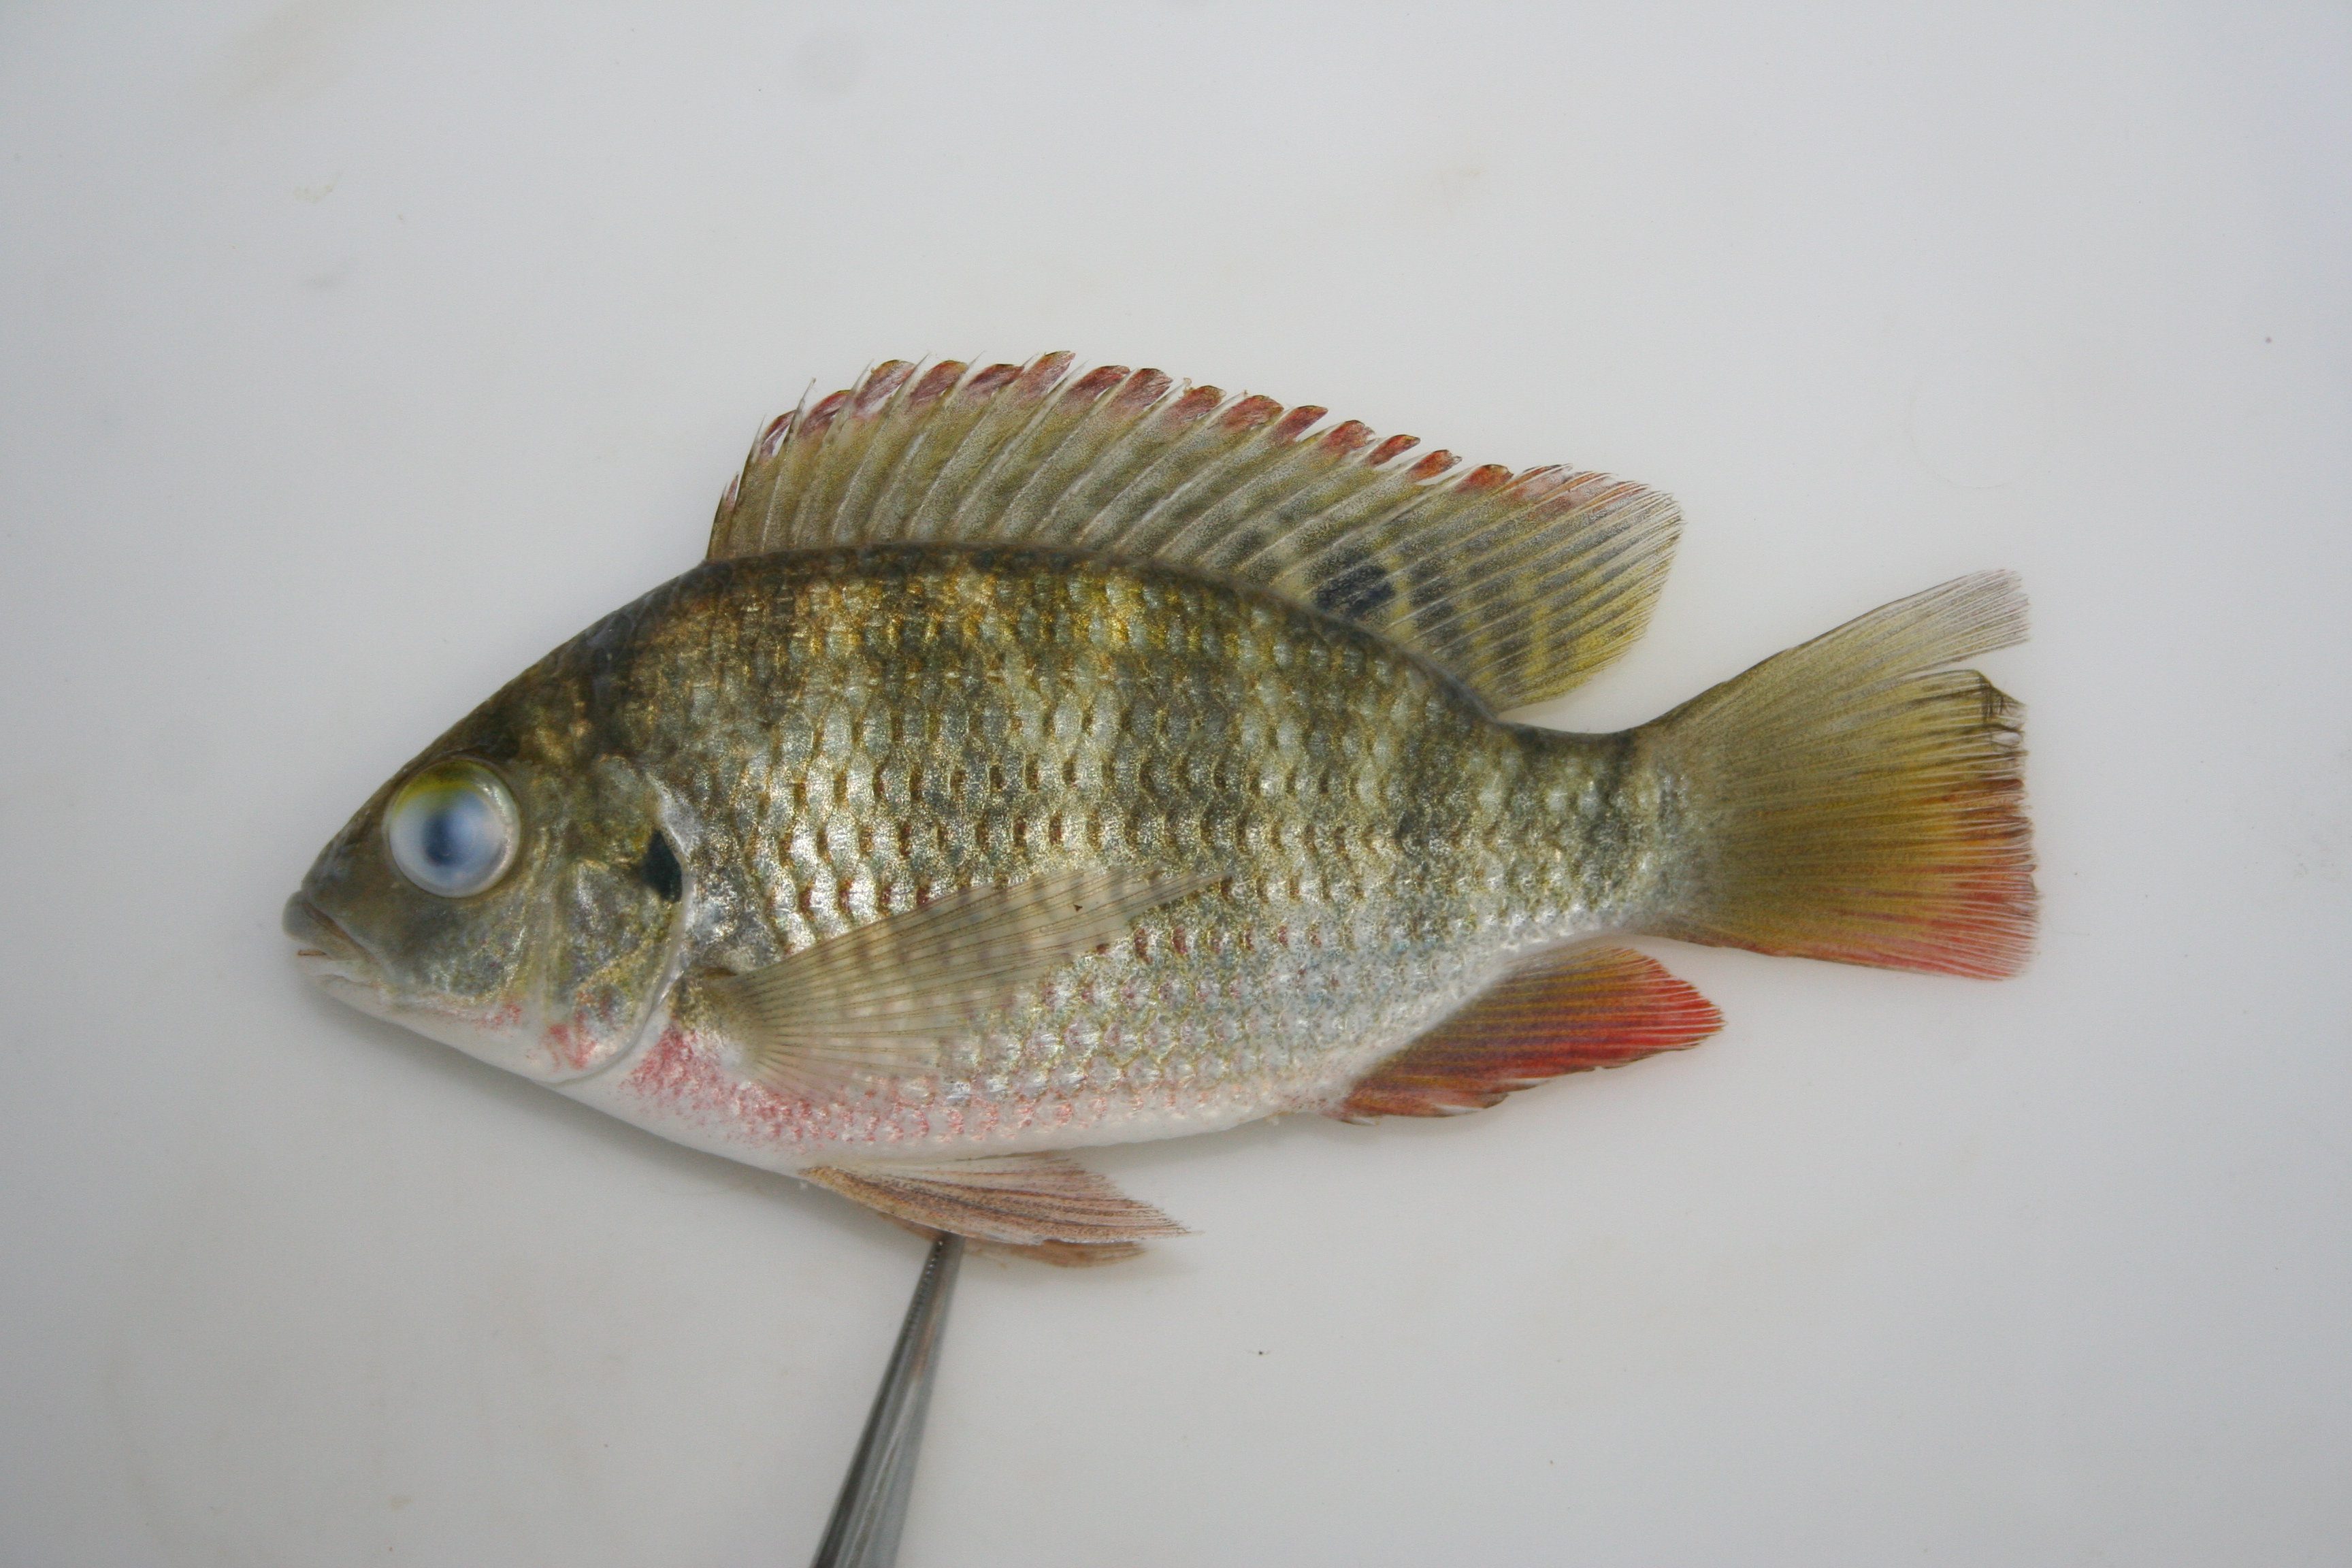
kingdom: Animalia
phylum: Chordata
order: Perciformes
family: Cichlidae
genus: Coptodon
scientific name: Coptodon rendalli
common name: Redbreast tilapia
